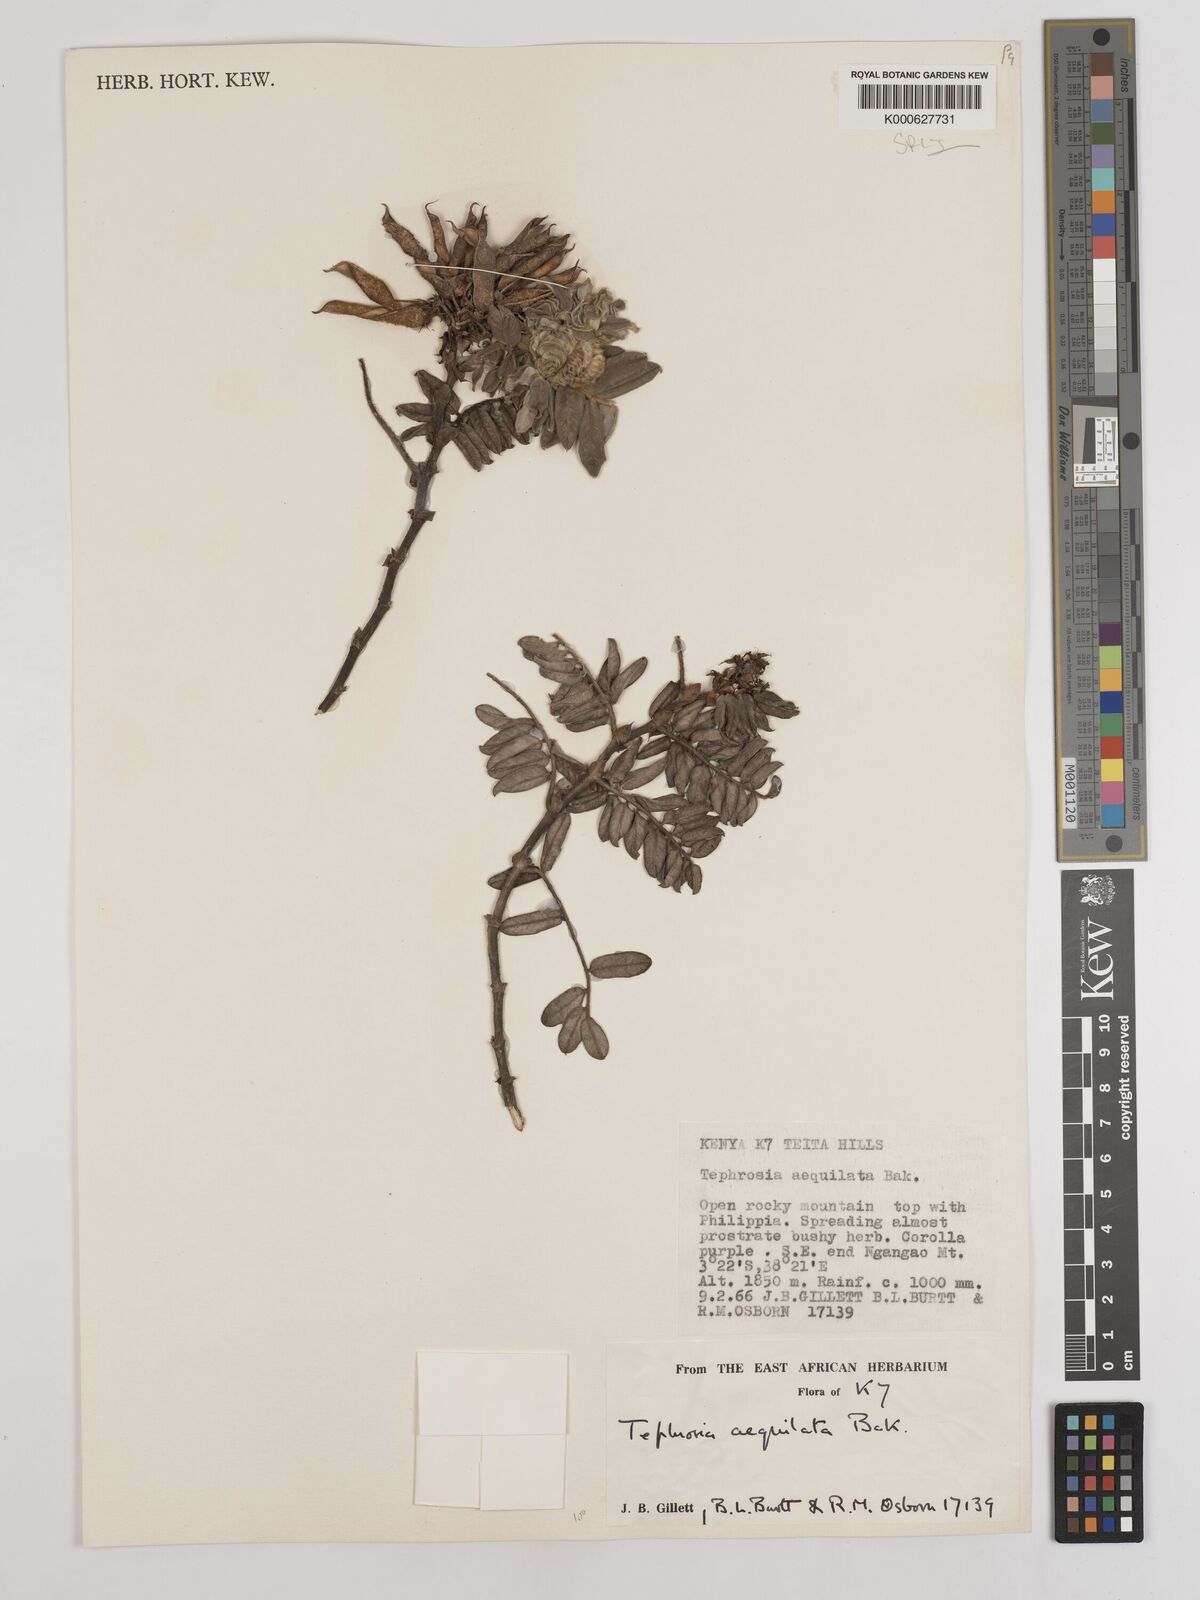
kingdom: Plantae
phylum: Tracheophyta
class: Magnoliopsida
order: Fabales
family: Fabaceae
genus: Tephrosia
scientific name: Tephrosia aequilata
